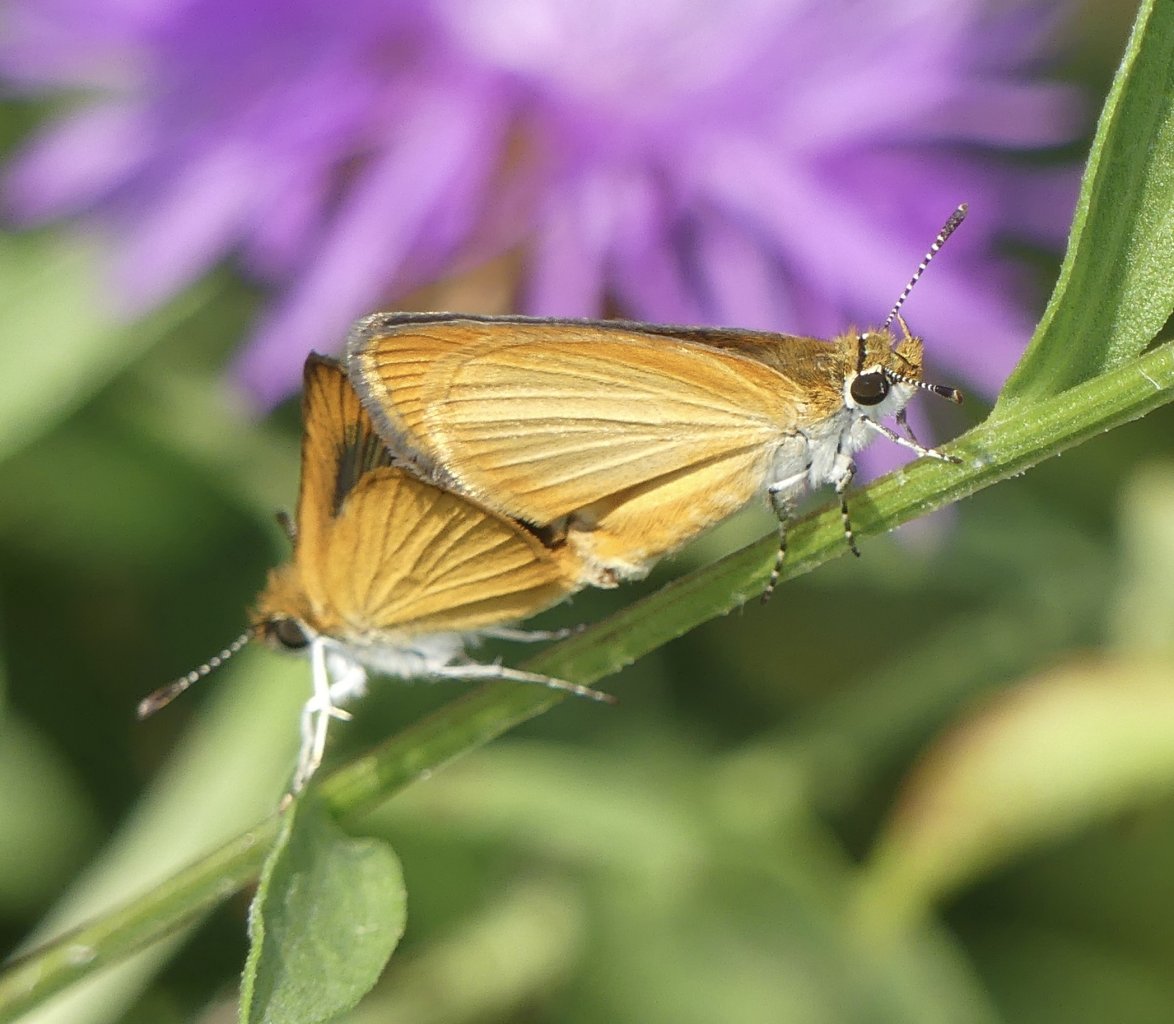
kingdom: Animalia
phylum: Arthropoda
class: Insecta
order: Lepidoptera
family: Hesperiidae
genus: Ancyloxypha
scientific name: Ancyloxypha numitor
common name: Least Skipper
